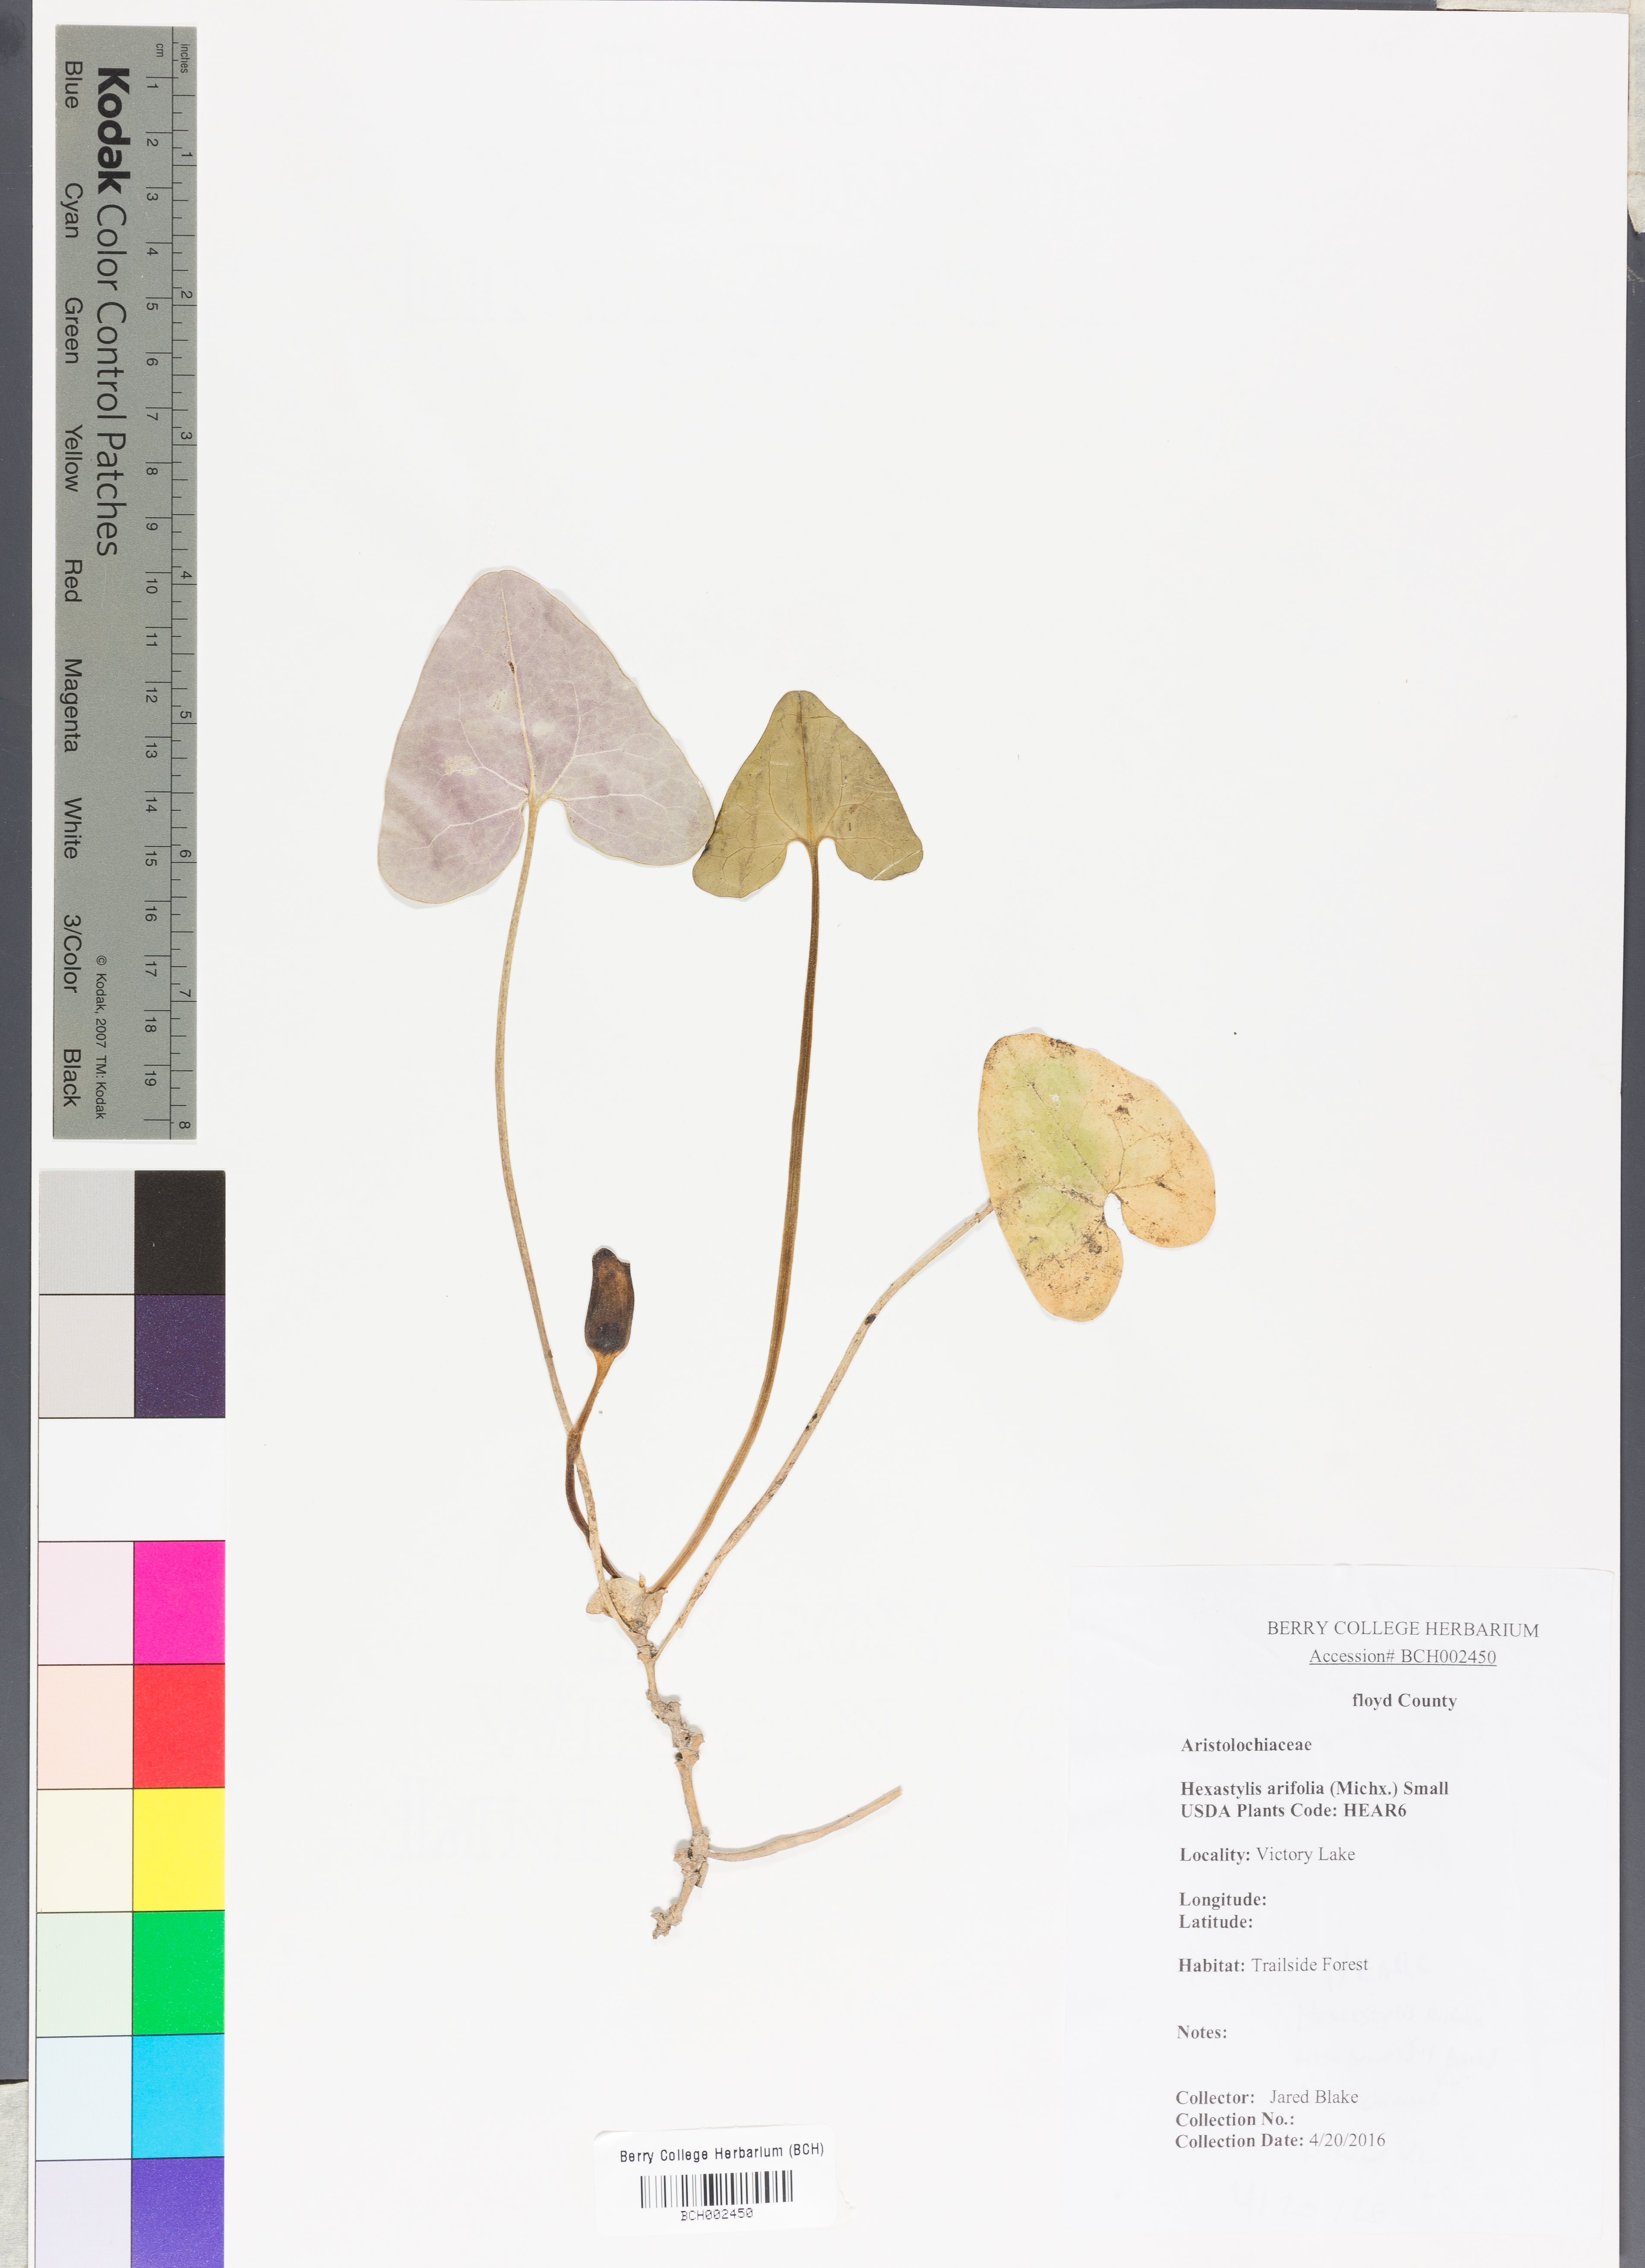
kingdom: Plantae
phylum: Tracheophyta
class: Magnoliopsida
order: Piperales
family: Aristolochiaceae
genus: Hexastylis
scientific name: Hexastylis arifolia
